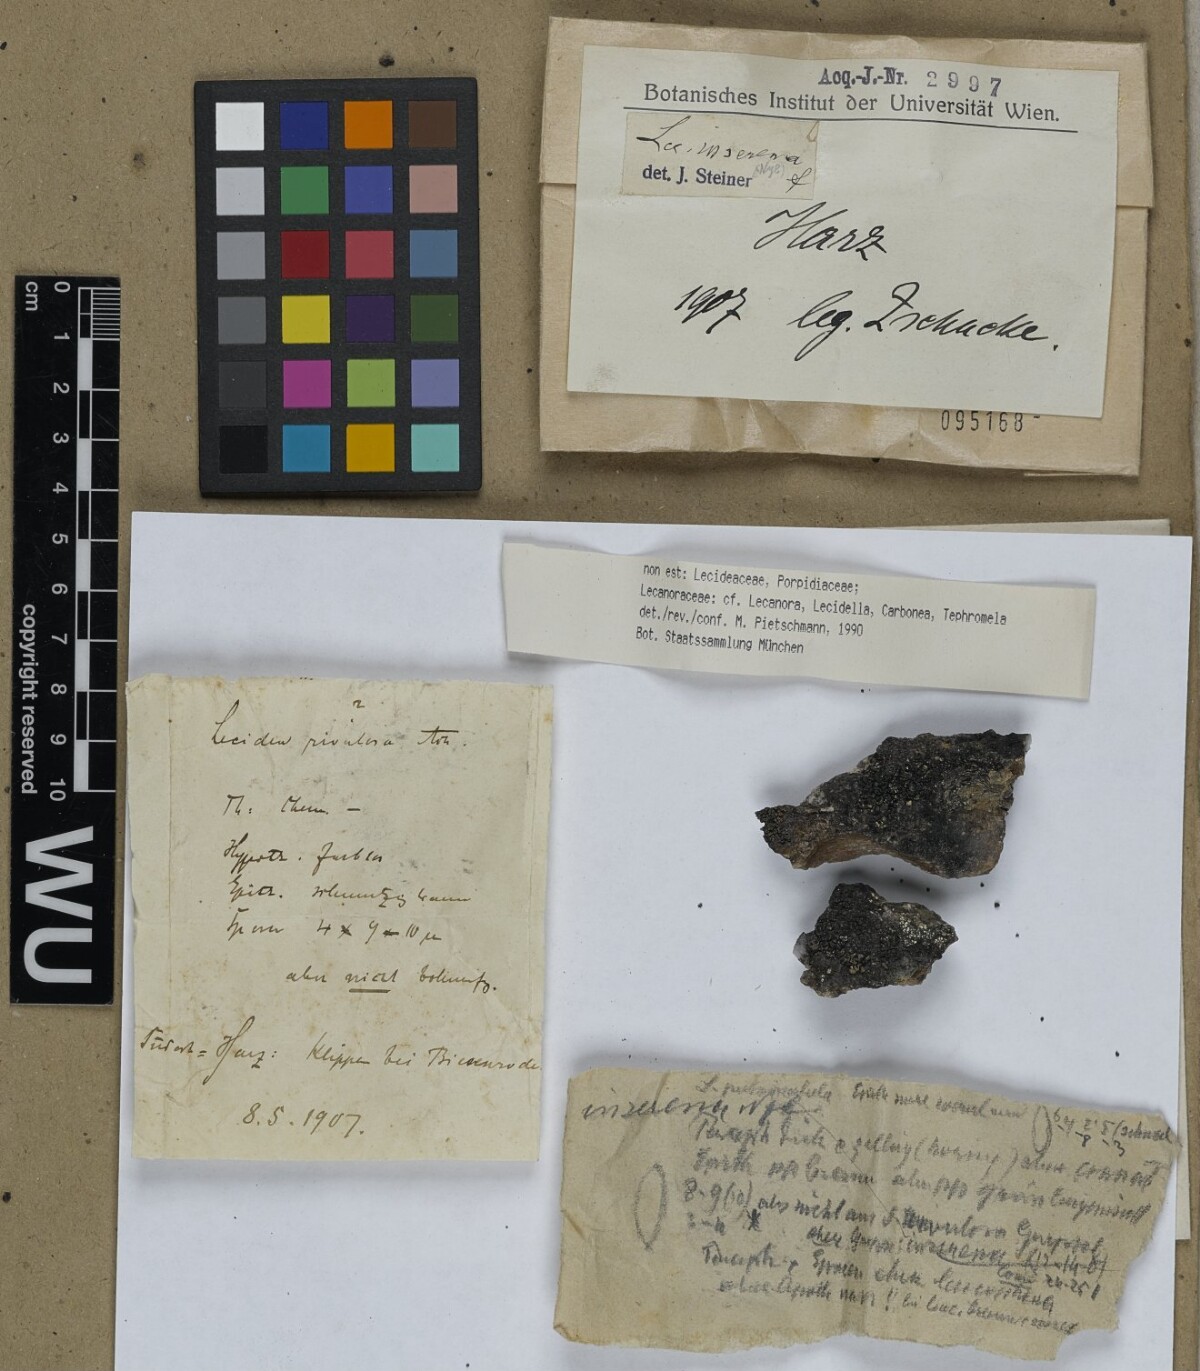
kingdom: Fungi
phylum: Ascomycota
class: Lecanoromycetes
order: Lecanorales
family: Lecanoraceae
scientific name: Lecanoraceae
